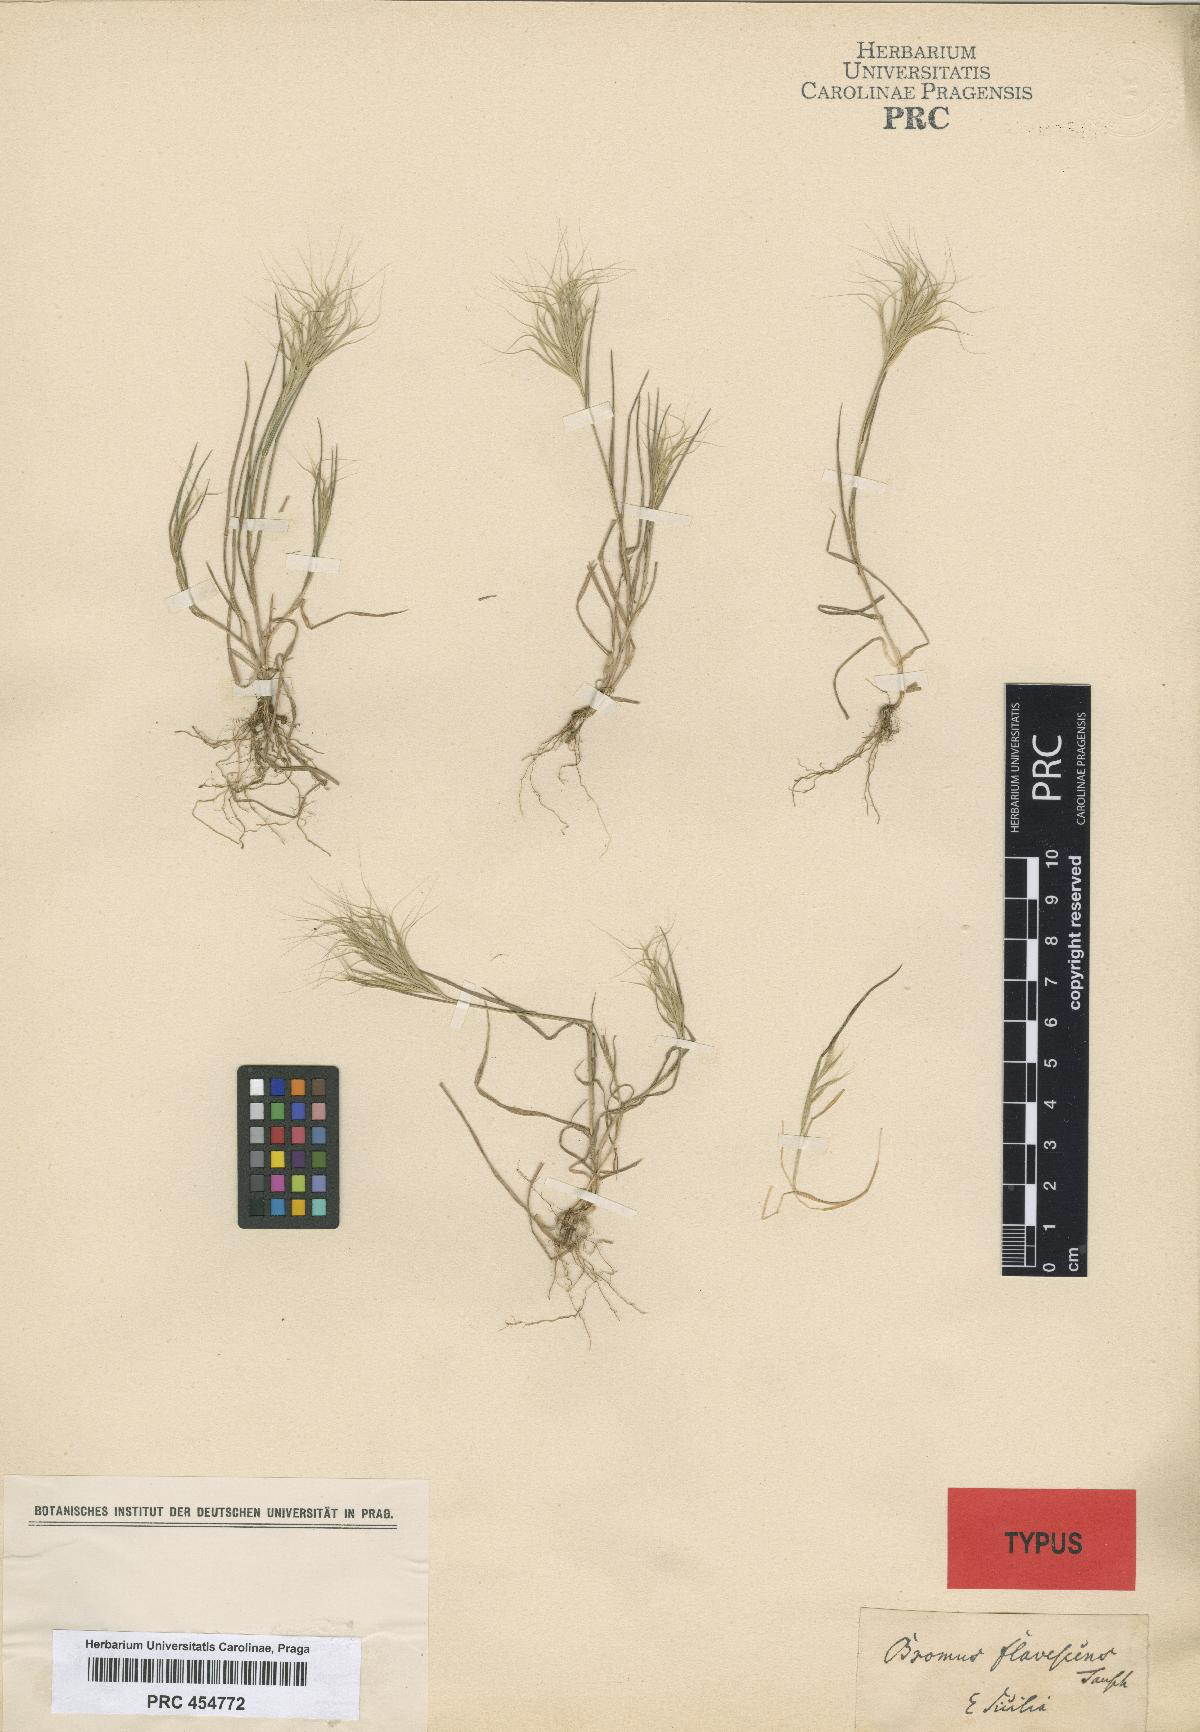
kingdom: Plantae
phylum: Tracheophyta
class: Liliopsida
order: Poales
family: Poaceae
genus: Bromus
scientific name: Bromus fasciculatus
